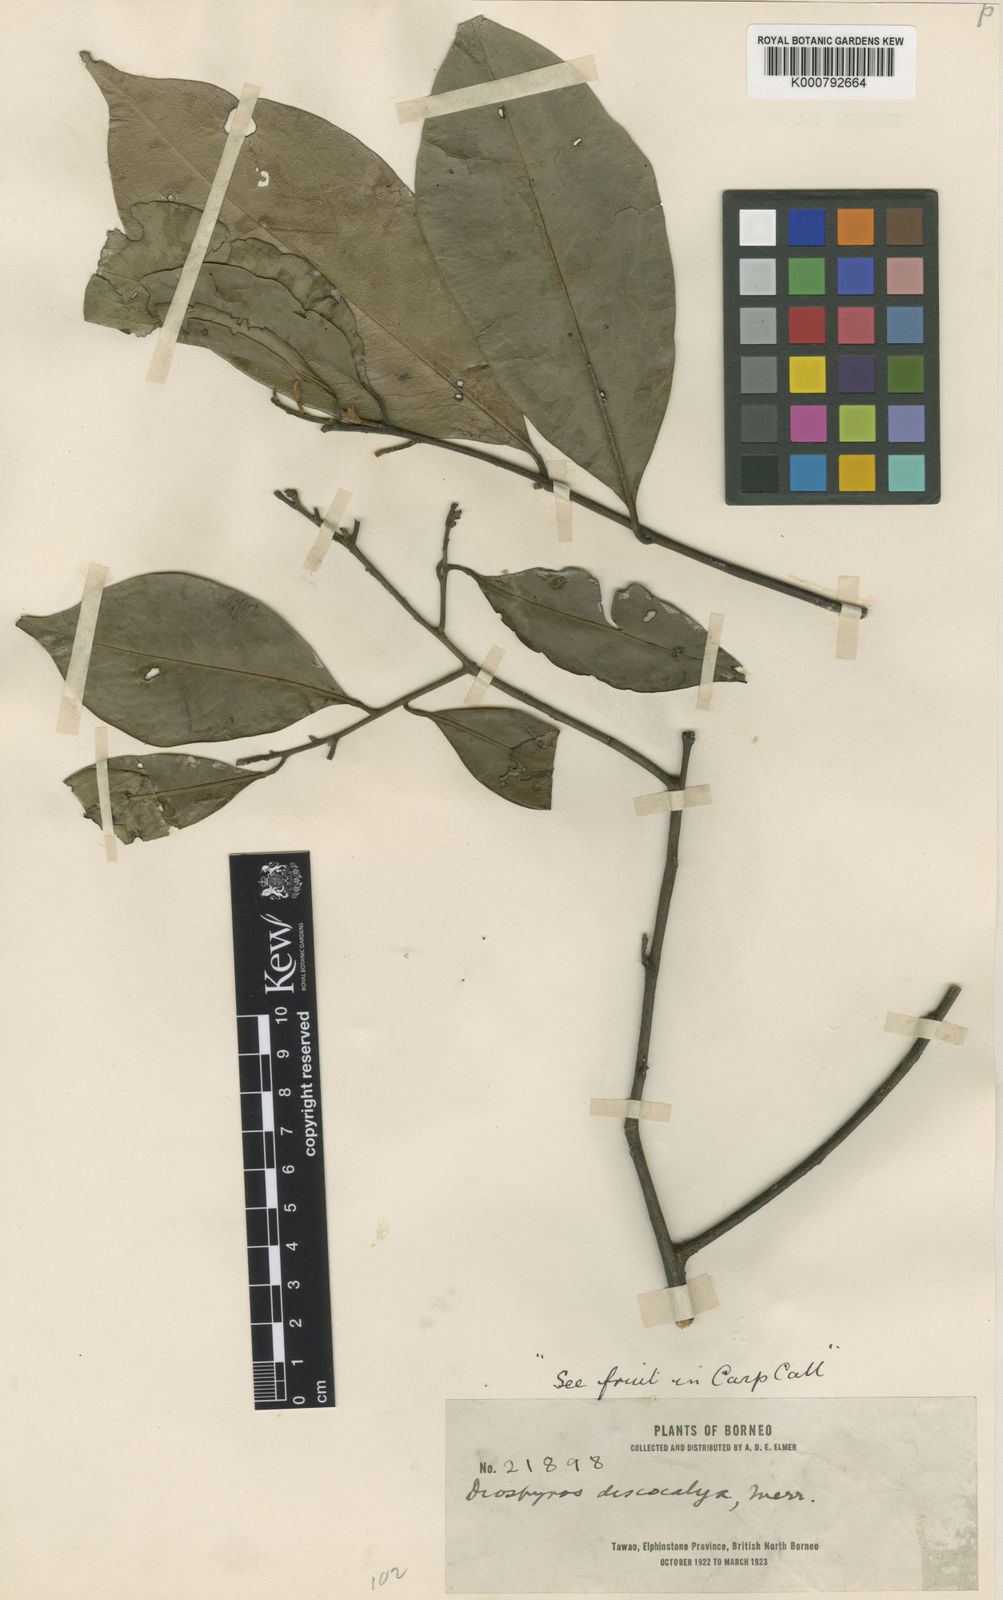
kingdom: Plantae
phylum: Tracheophyta
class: Magnoliopsida
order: Ericales
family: Ebenaceae
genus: Diospyros
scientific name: Diospyros discocalyx
